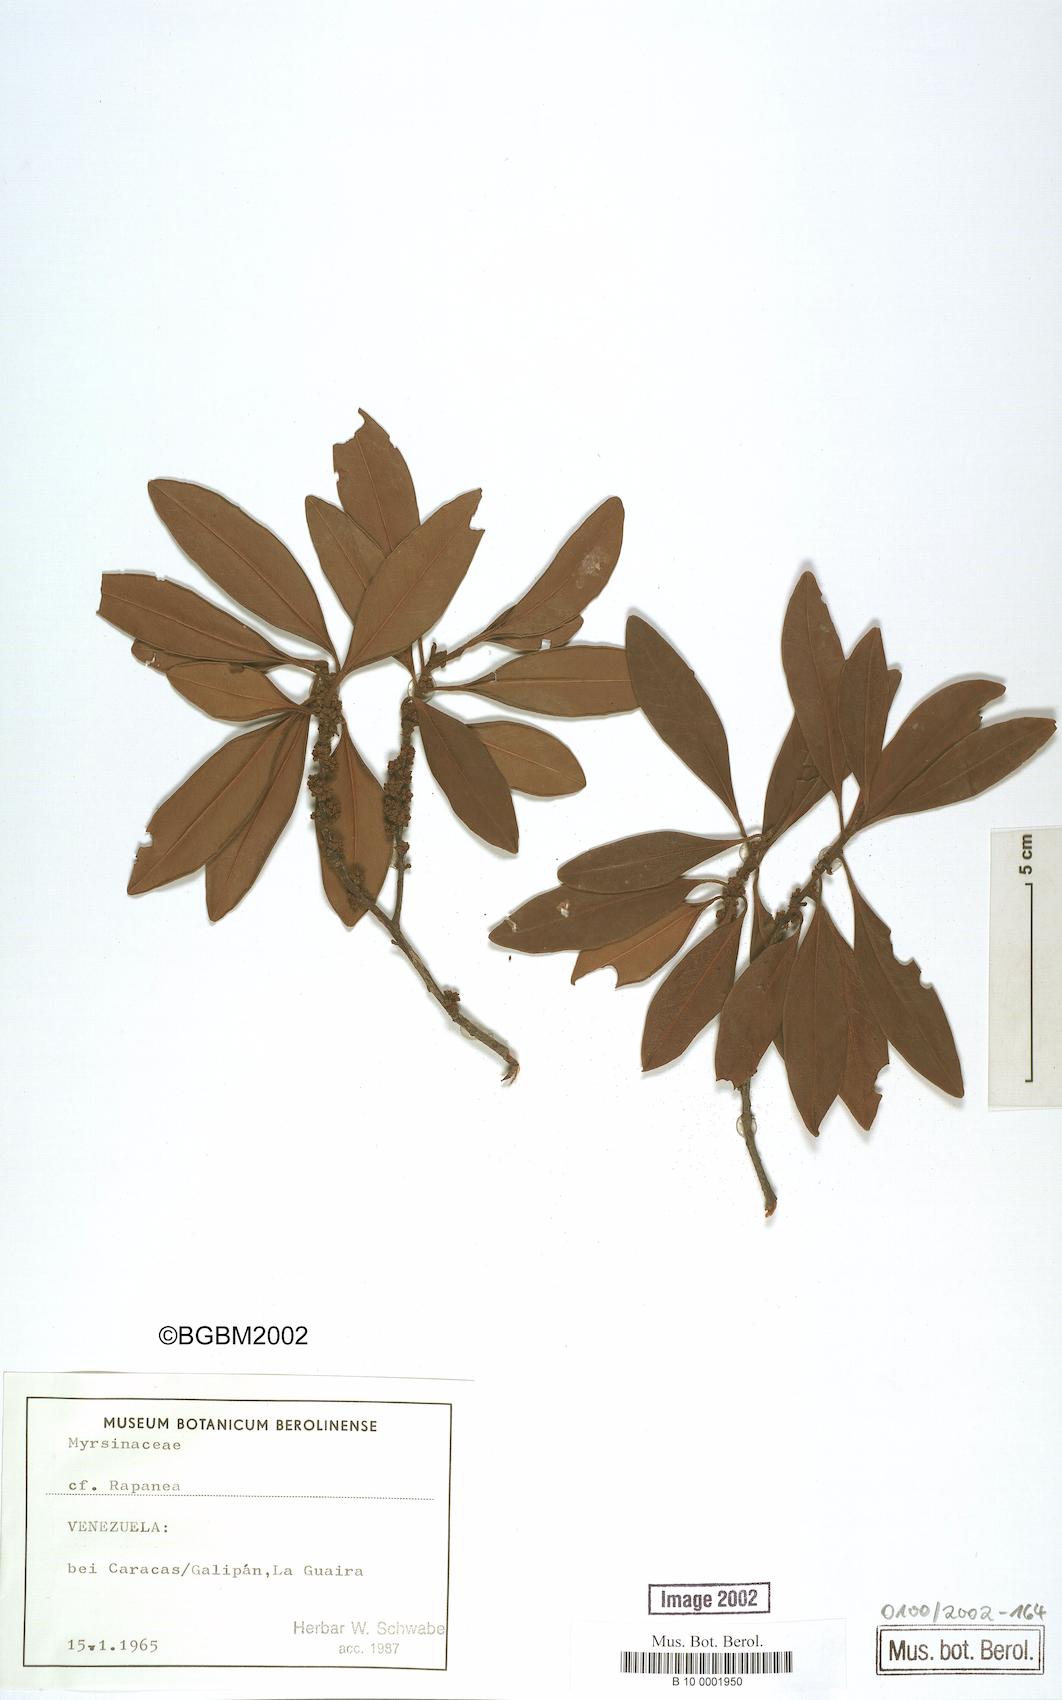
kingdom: Plantae
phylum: Tracheophyta
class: Magnoliopsida
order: Ericales
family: Primulaceae
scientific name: Primulaceae
